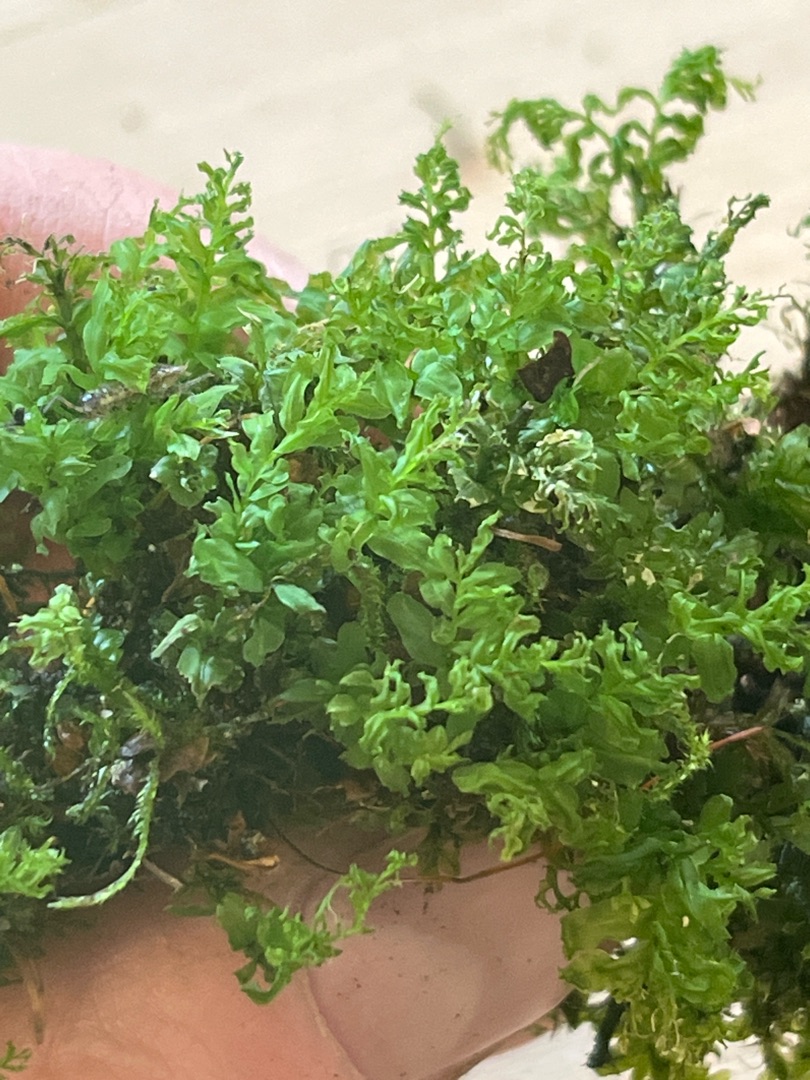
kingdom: Plantae
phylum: Bryophyta
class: Bryopsida
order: Bryales
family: Mniaceae
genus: Plagiomnium
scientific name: Plagiomnium undulatum
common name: Bølget krybstjerne
